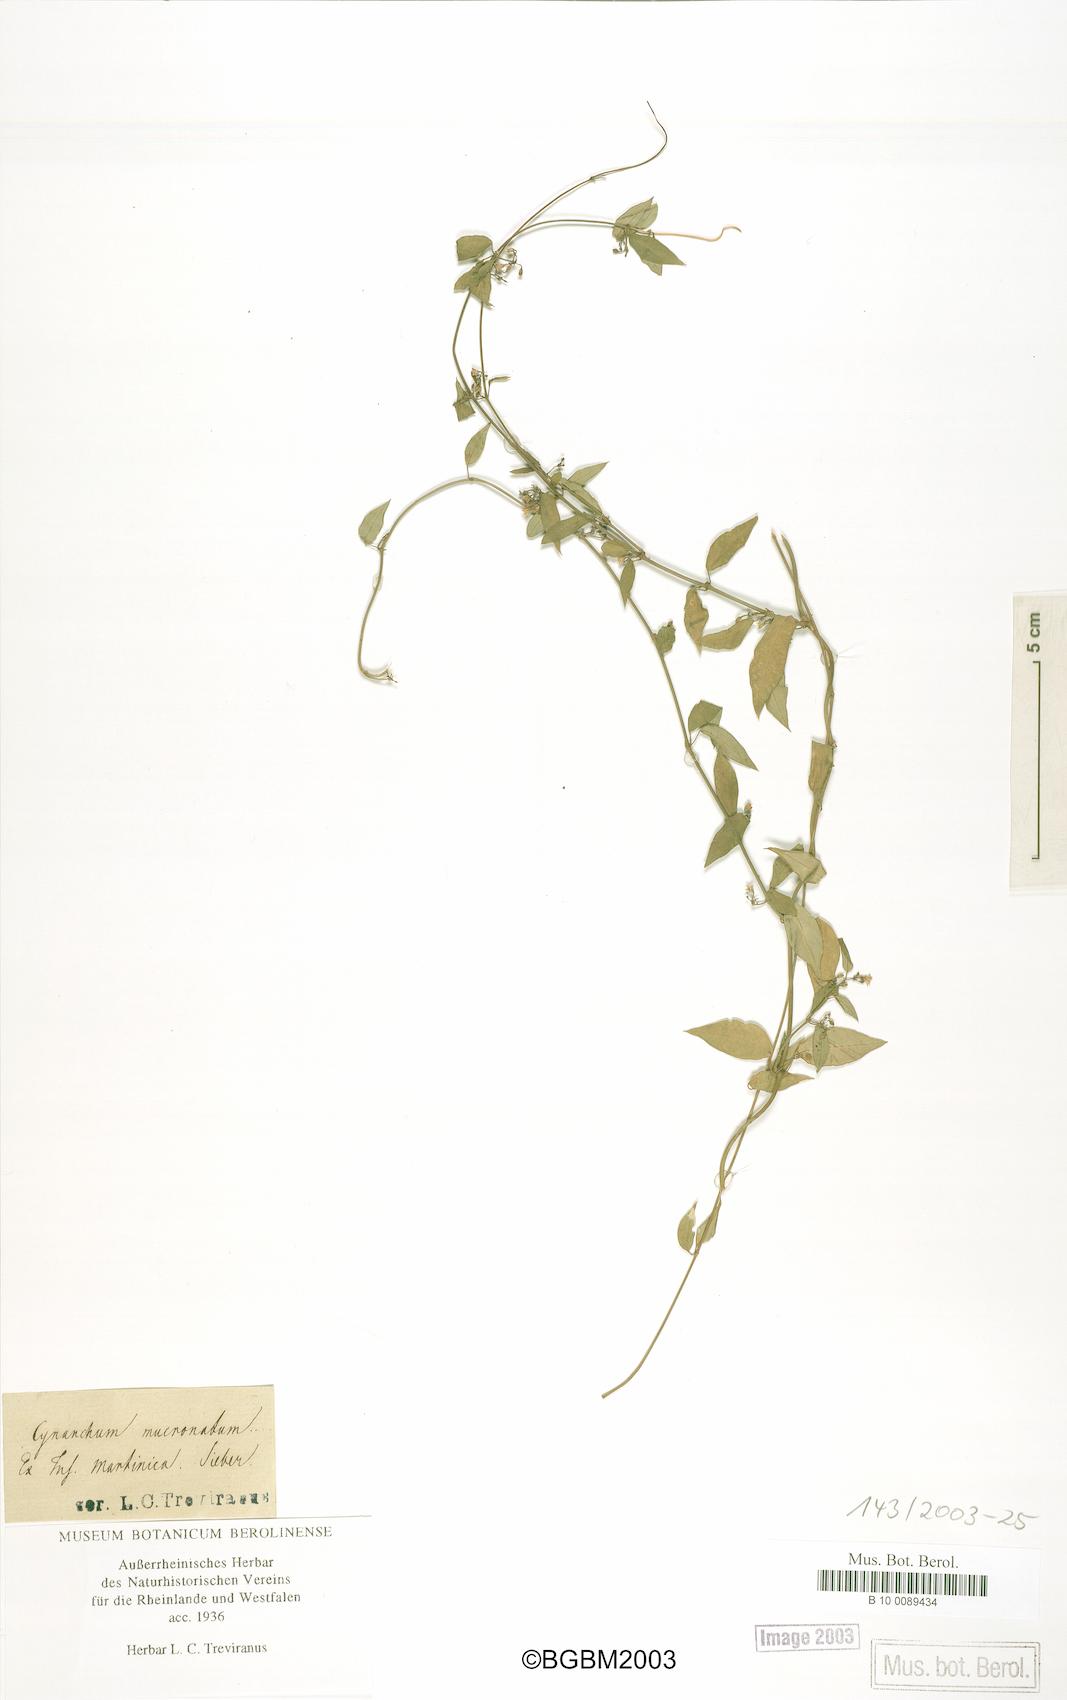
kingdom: Plantae
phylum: Tracheophyta
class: Magnoliopsida
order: Gentianales
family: Apocynaceae
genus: Cynanchum
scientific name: Cynanchum meyeri
